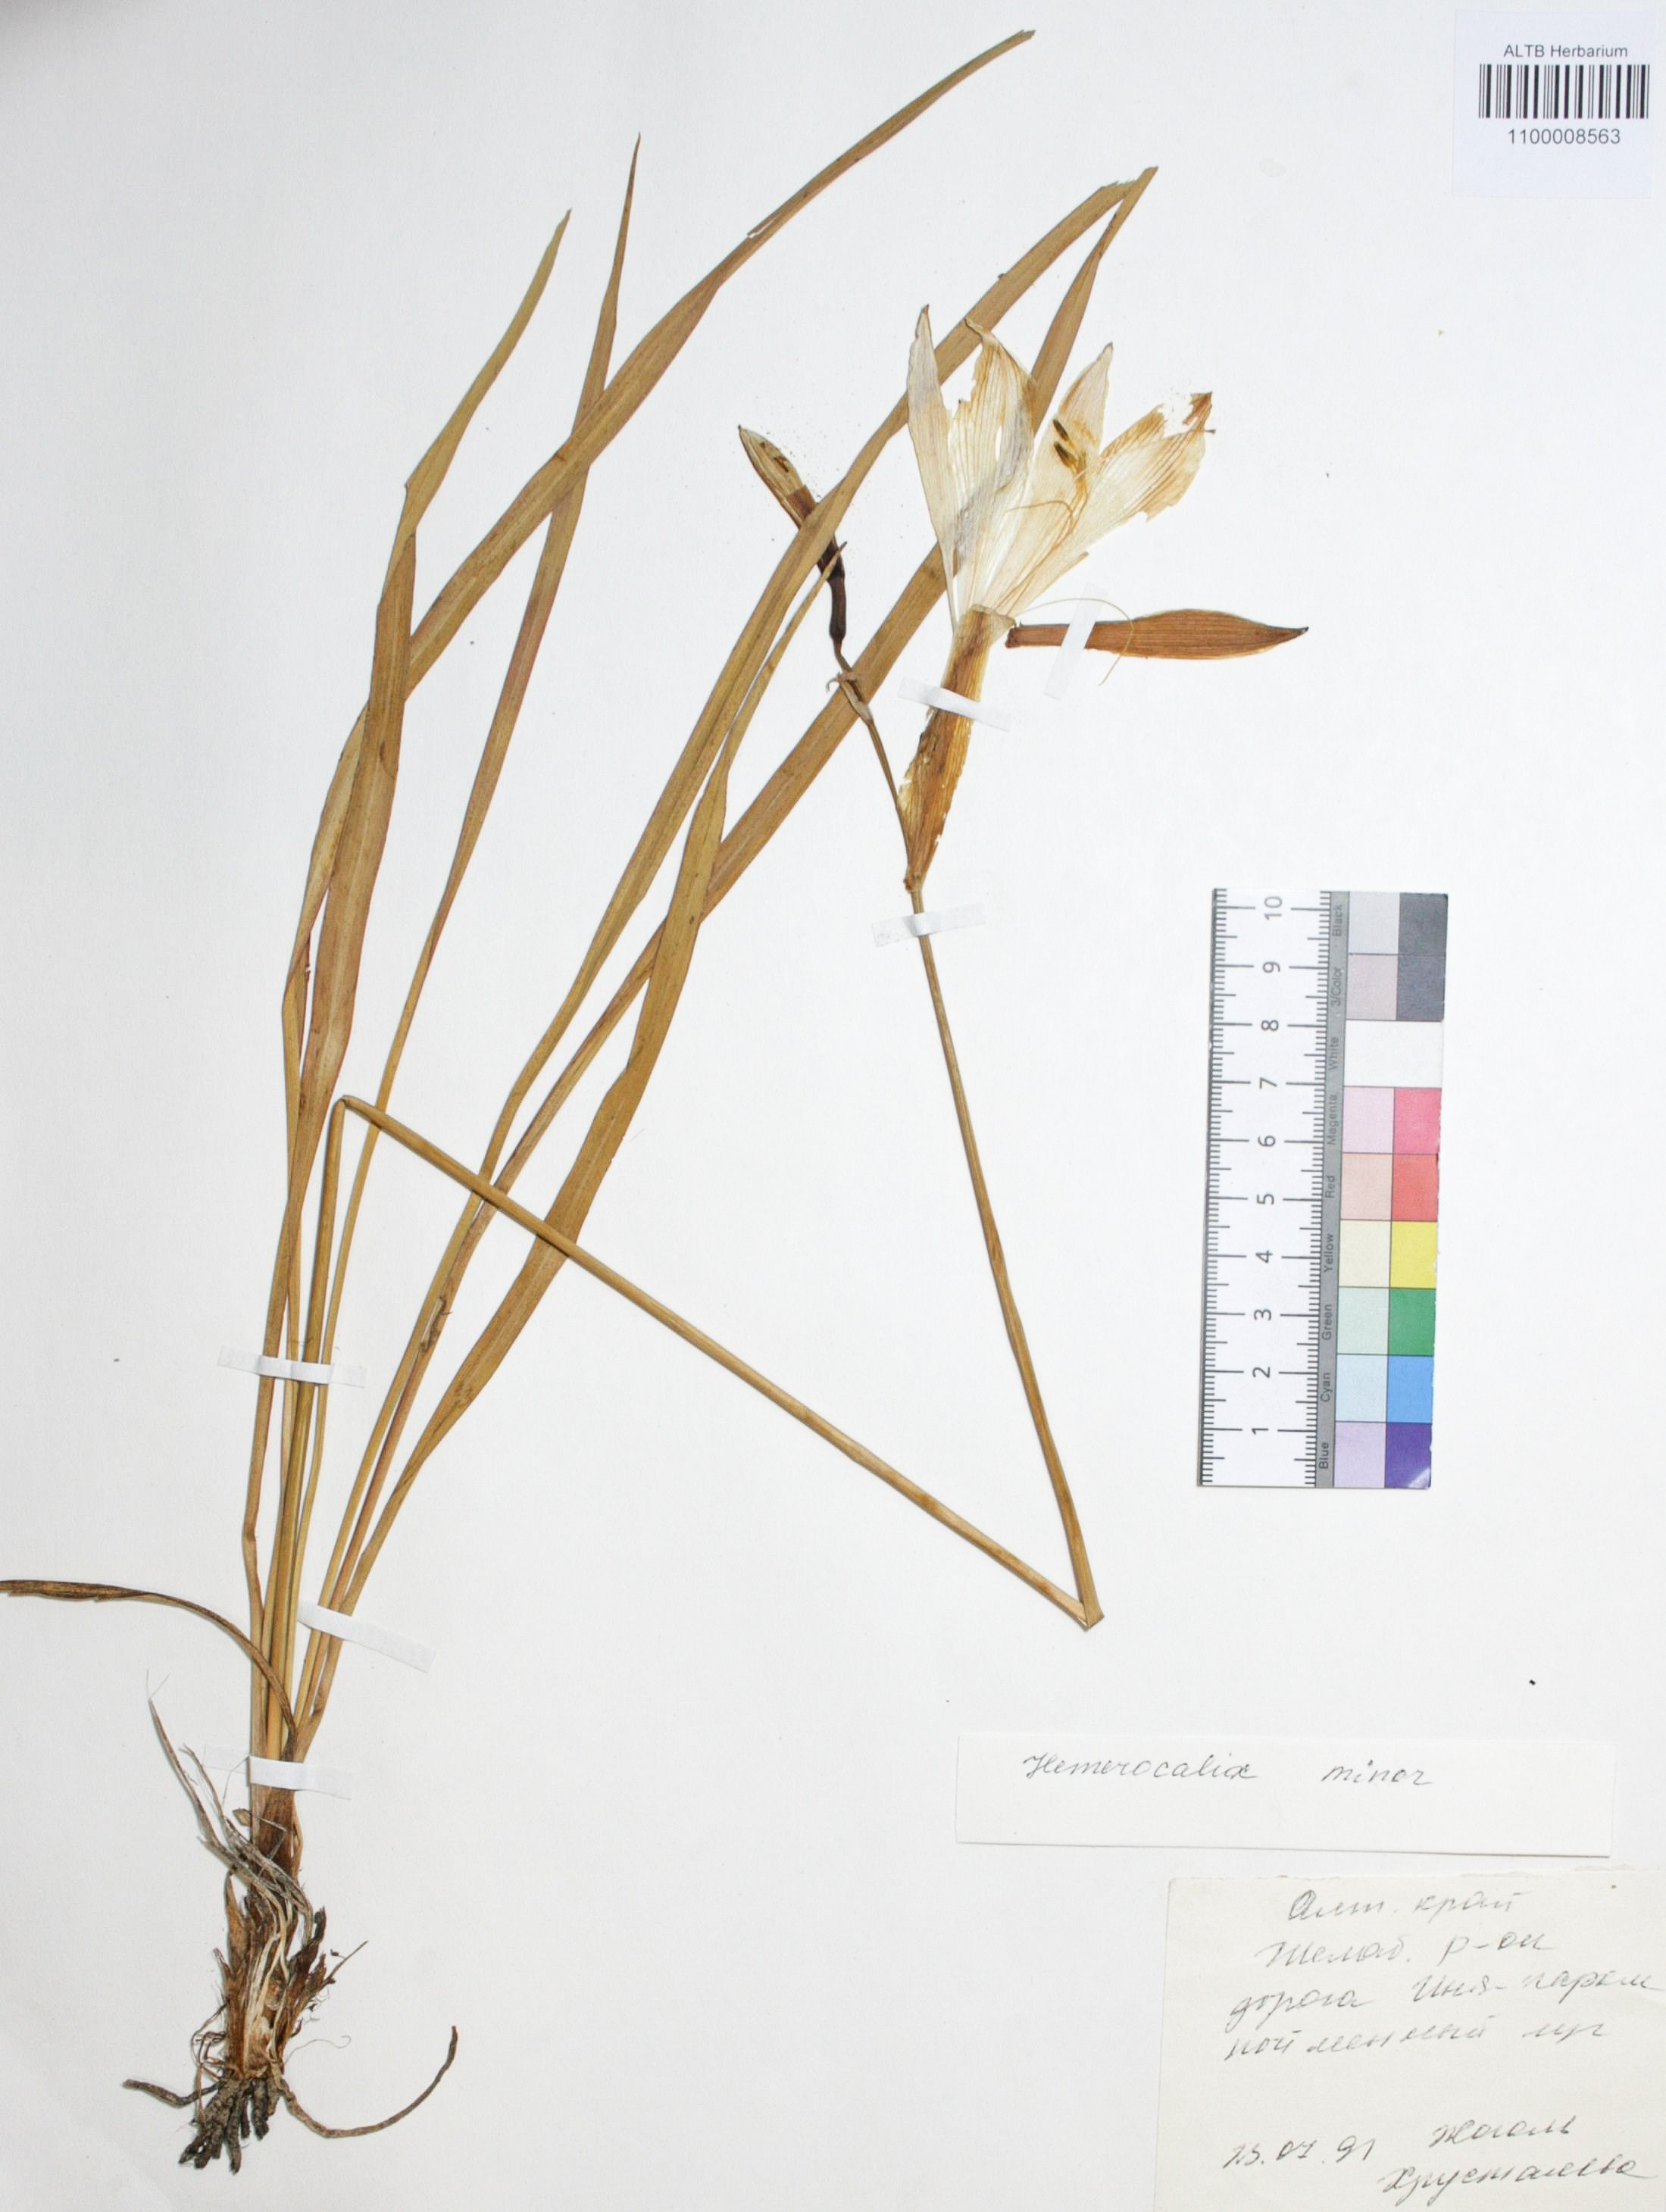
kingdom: Plantae
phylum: Tracheophyta
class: Liliopsida
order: Asparagales
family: Asphodelaceae
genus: Hemerocallis
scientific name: Hemerocallis minor
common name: Small daylily
